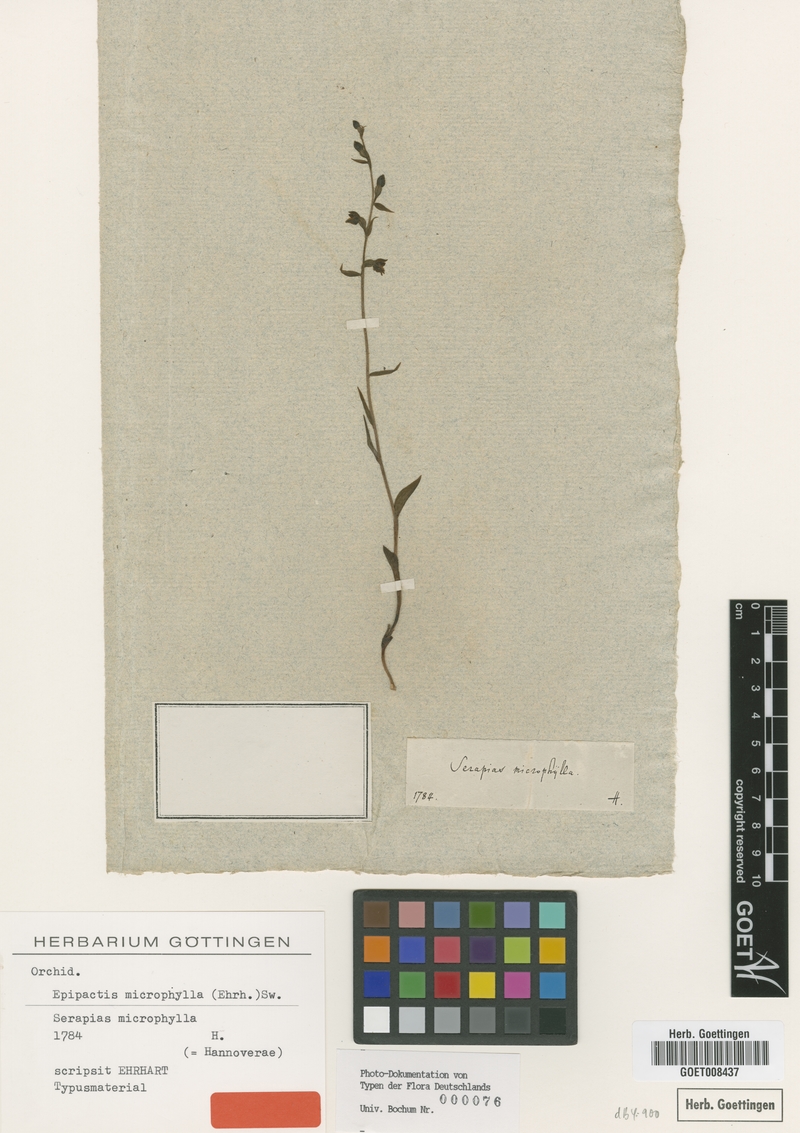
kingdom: Plantae
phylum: Tracheophyta
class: Liliopsida
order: Asparagales
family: Orchidaceae
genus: Epipactis
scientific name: Epipactis microphylla
